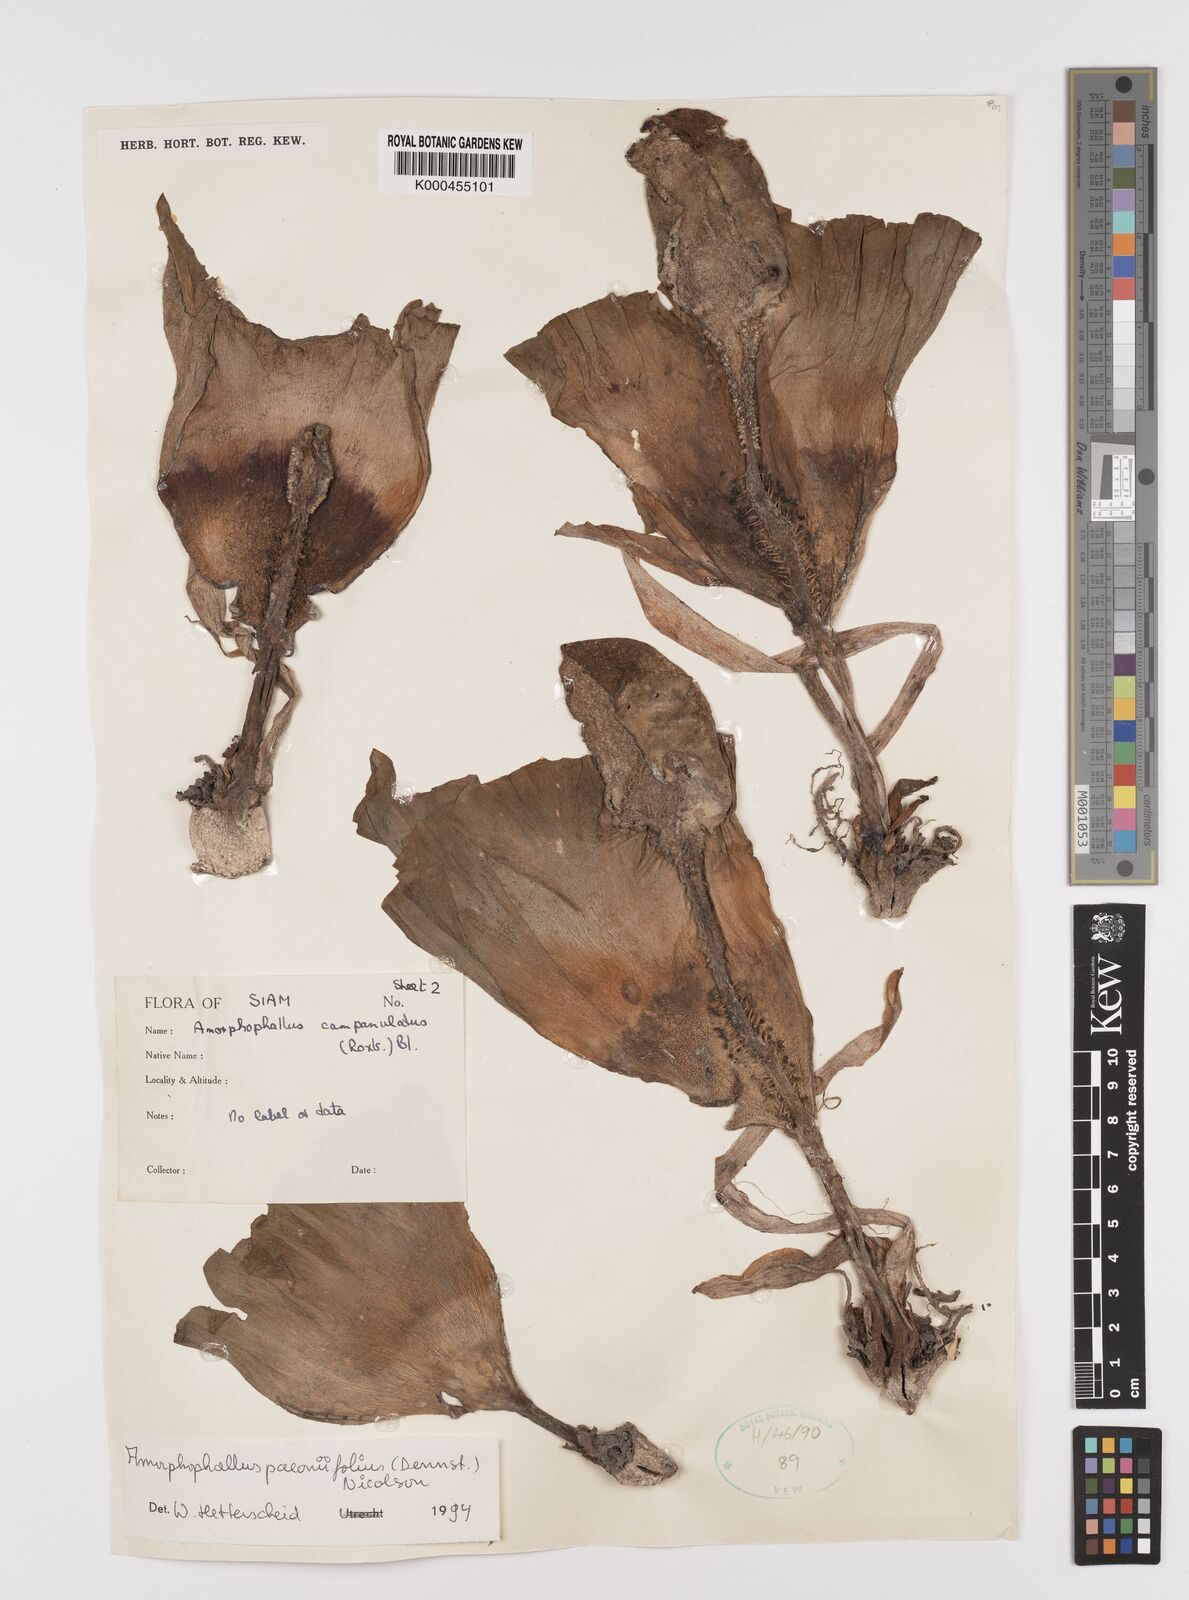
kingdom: Plantae
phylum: Tracheophyta
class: Liliopsida
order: Alismatales
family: Araceae
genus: Amorphophallus
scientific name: Amorphophallus paeoniifolius
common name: Telinga-potato
